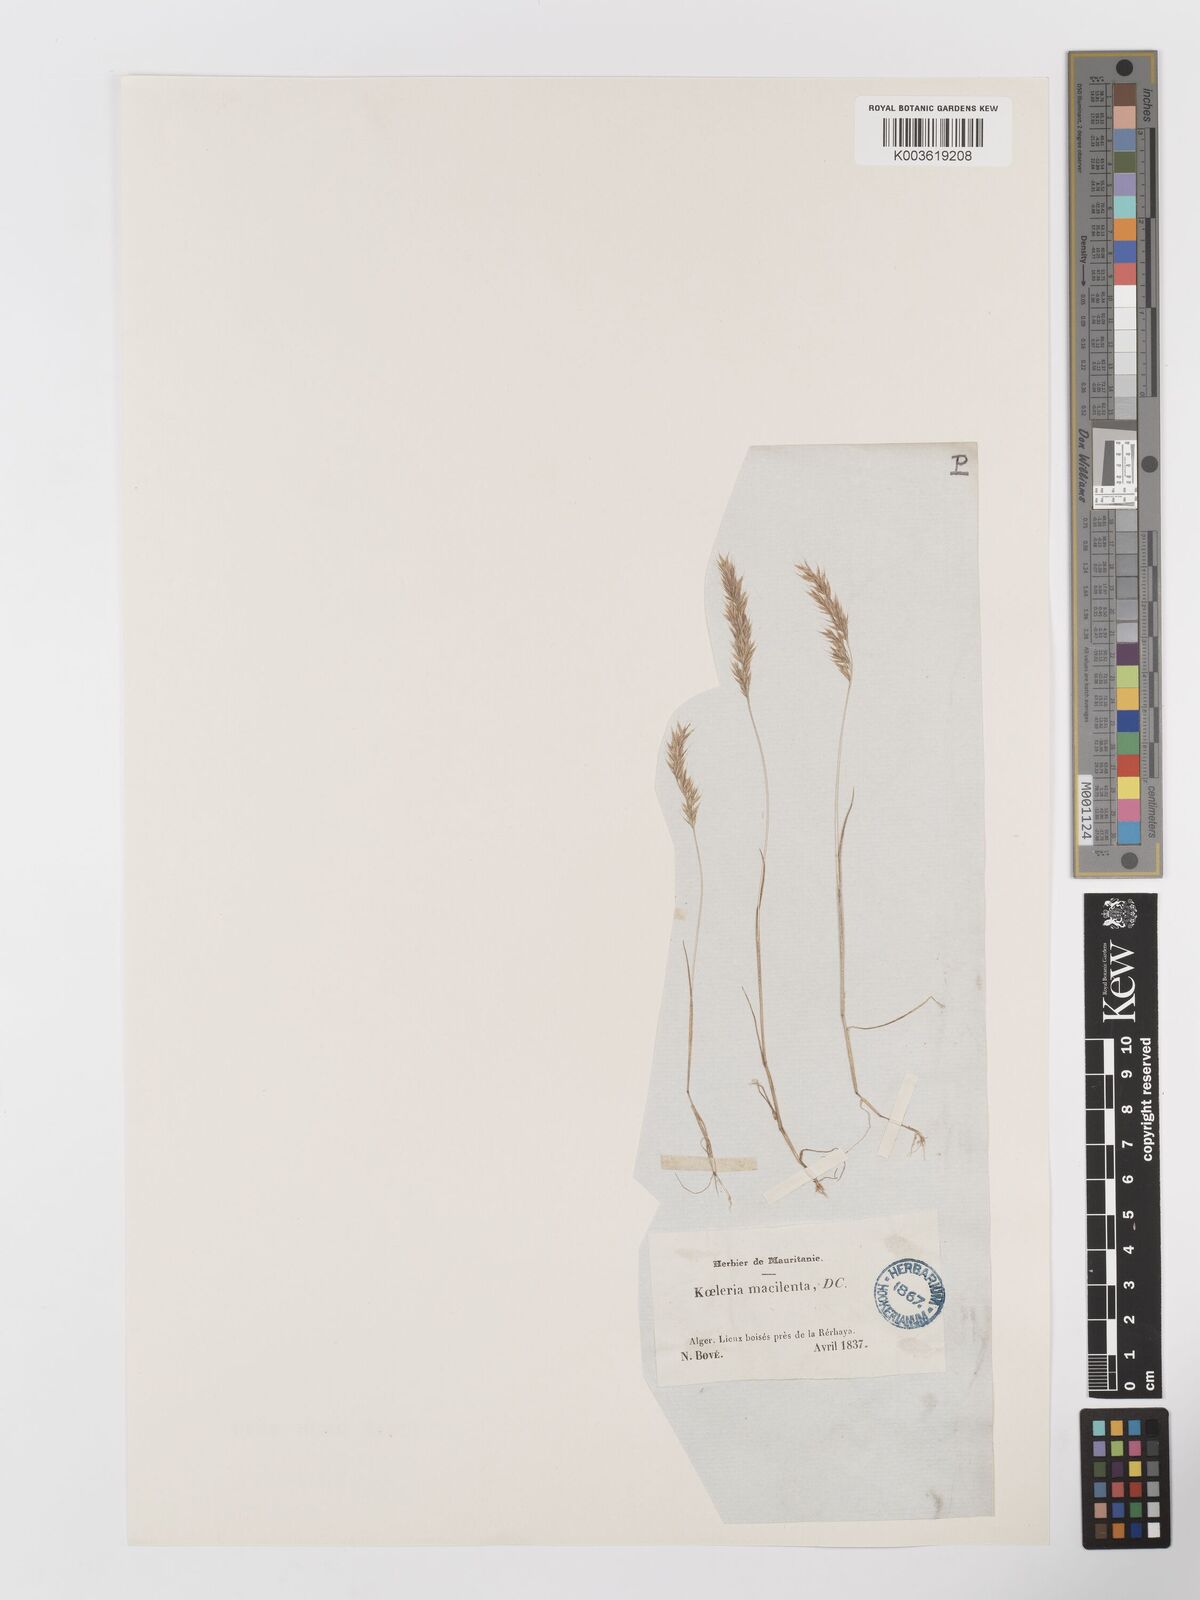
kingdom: Plantae
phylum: Tracheophyta
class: Liliopsida
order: Poales
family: Poaceae
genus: Avellinia
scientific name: Avellinia festucoides
